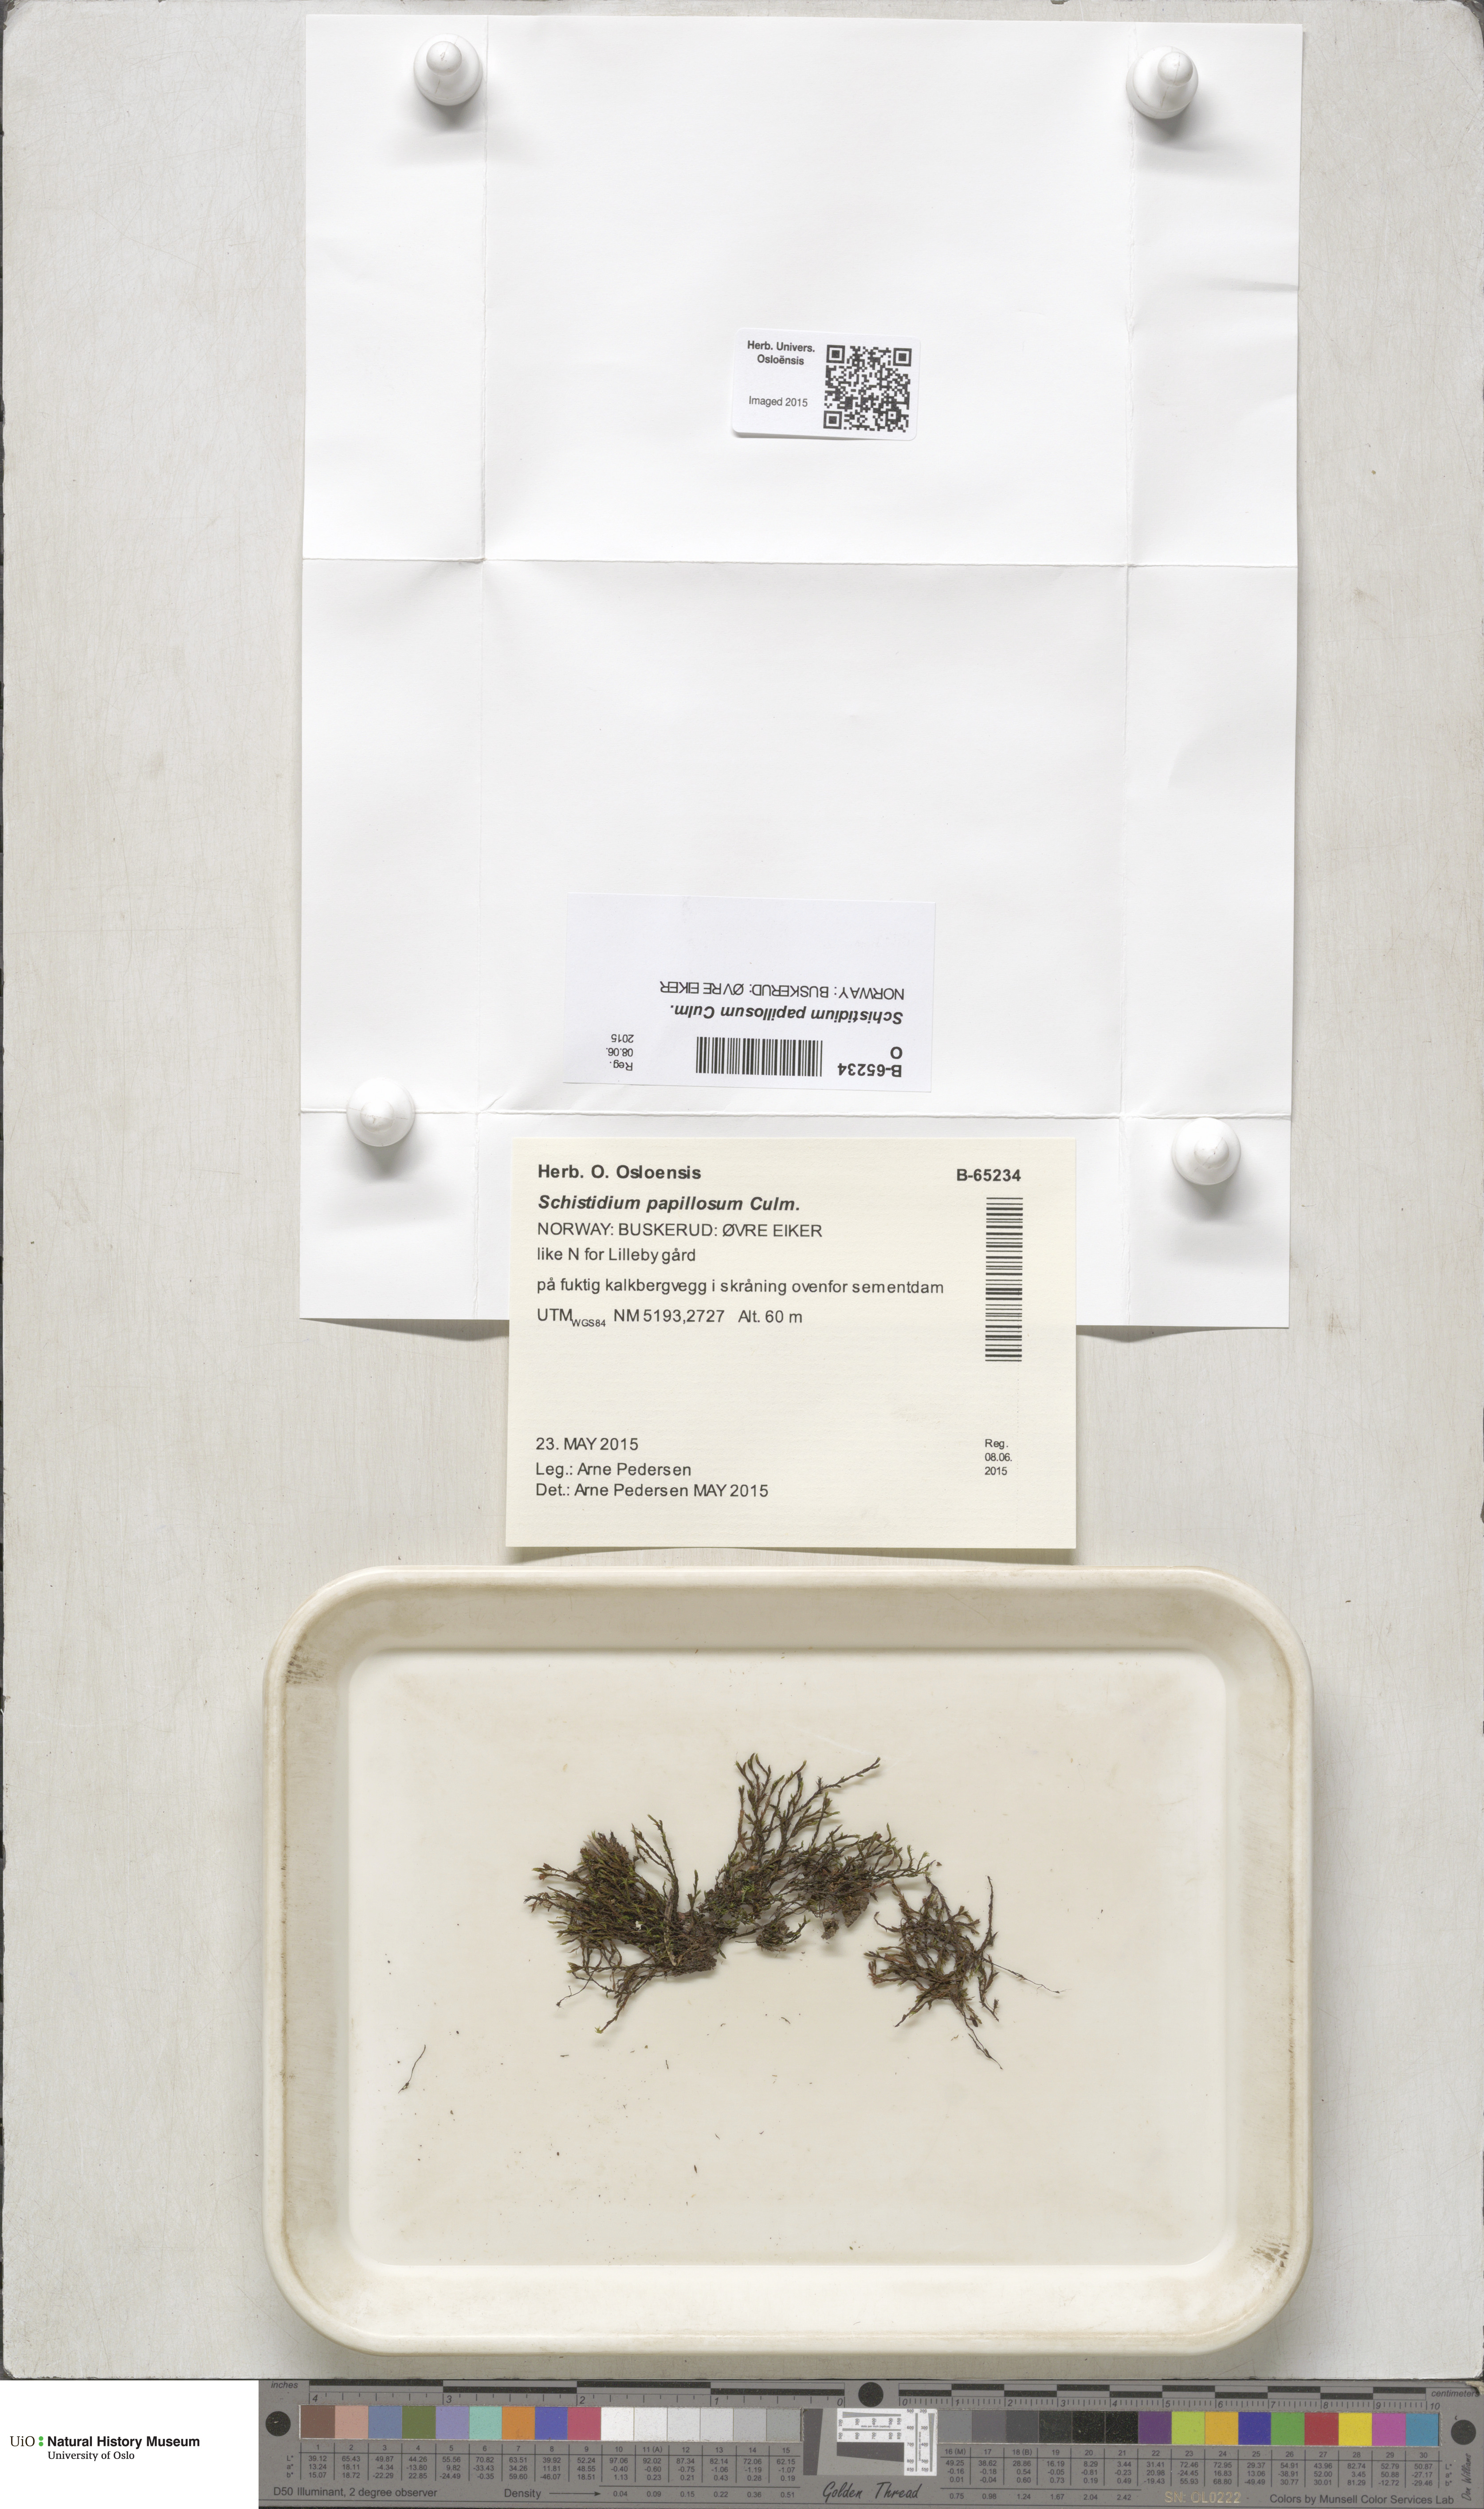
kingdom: Plantae
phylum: Bryophyta
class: Bryopsida
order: Grimmiales
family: Grimmiaceae
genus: Schistidium
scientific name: Schistidium papillosum
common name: Papillose bloom moss
